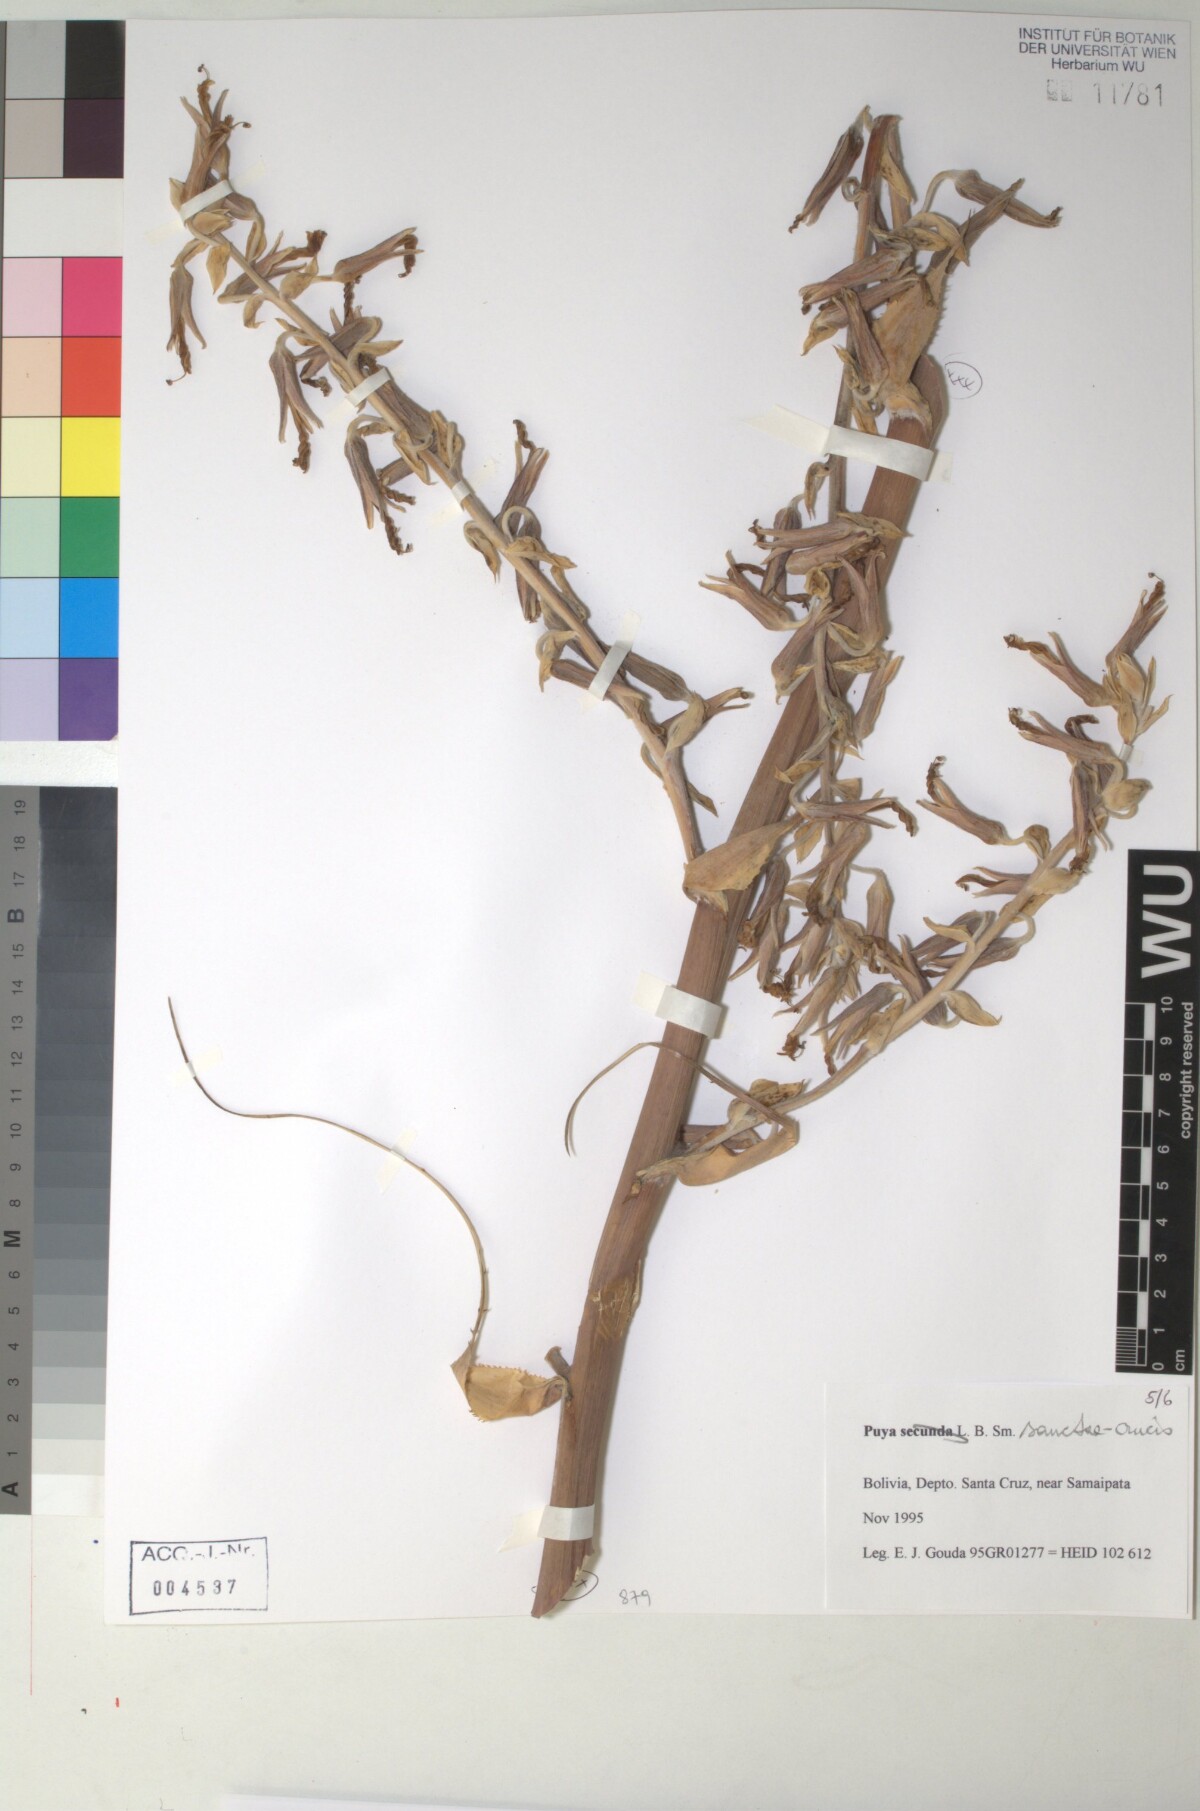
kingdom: Plantae
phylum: Tracheophyta
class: Liliopsida
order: Poales
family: Bromeliaceae
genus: Puya
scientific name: Puya secunda
